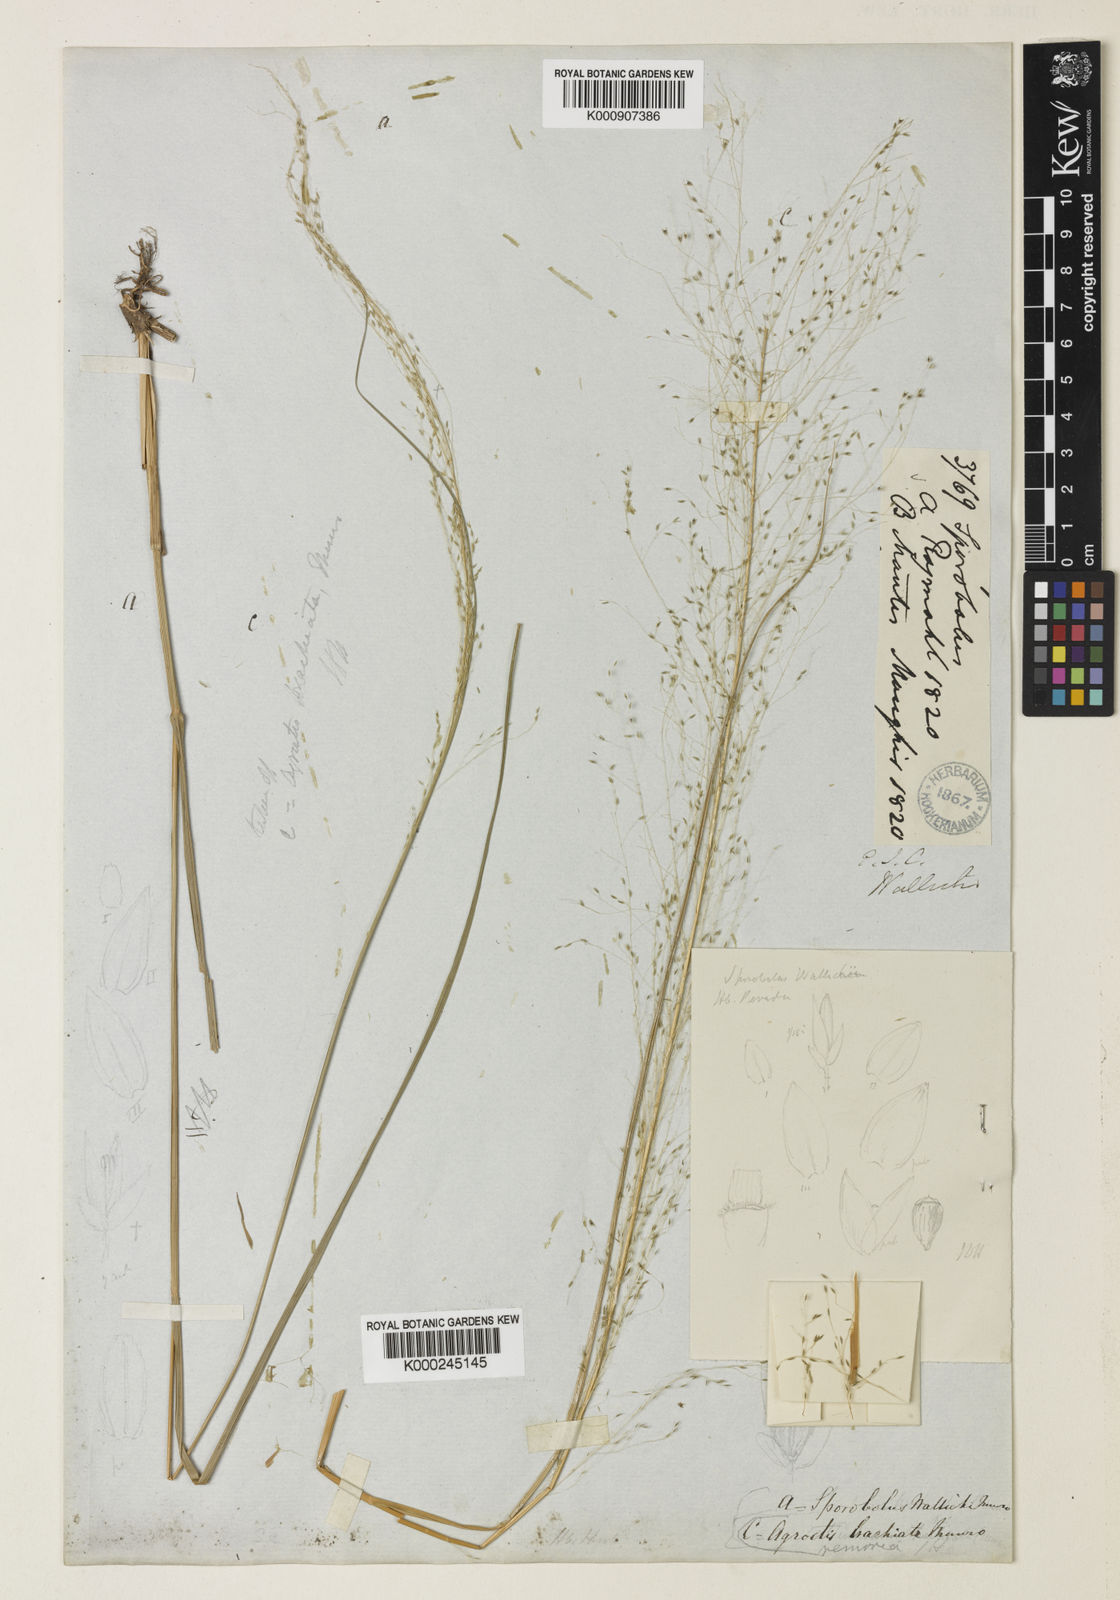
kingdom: Plantae
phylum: Tracheophyta
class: Liliopsida
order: Poales
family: Poaceae
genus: Sporobolus
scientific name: Sporobolus
